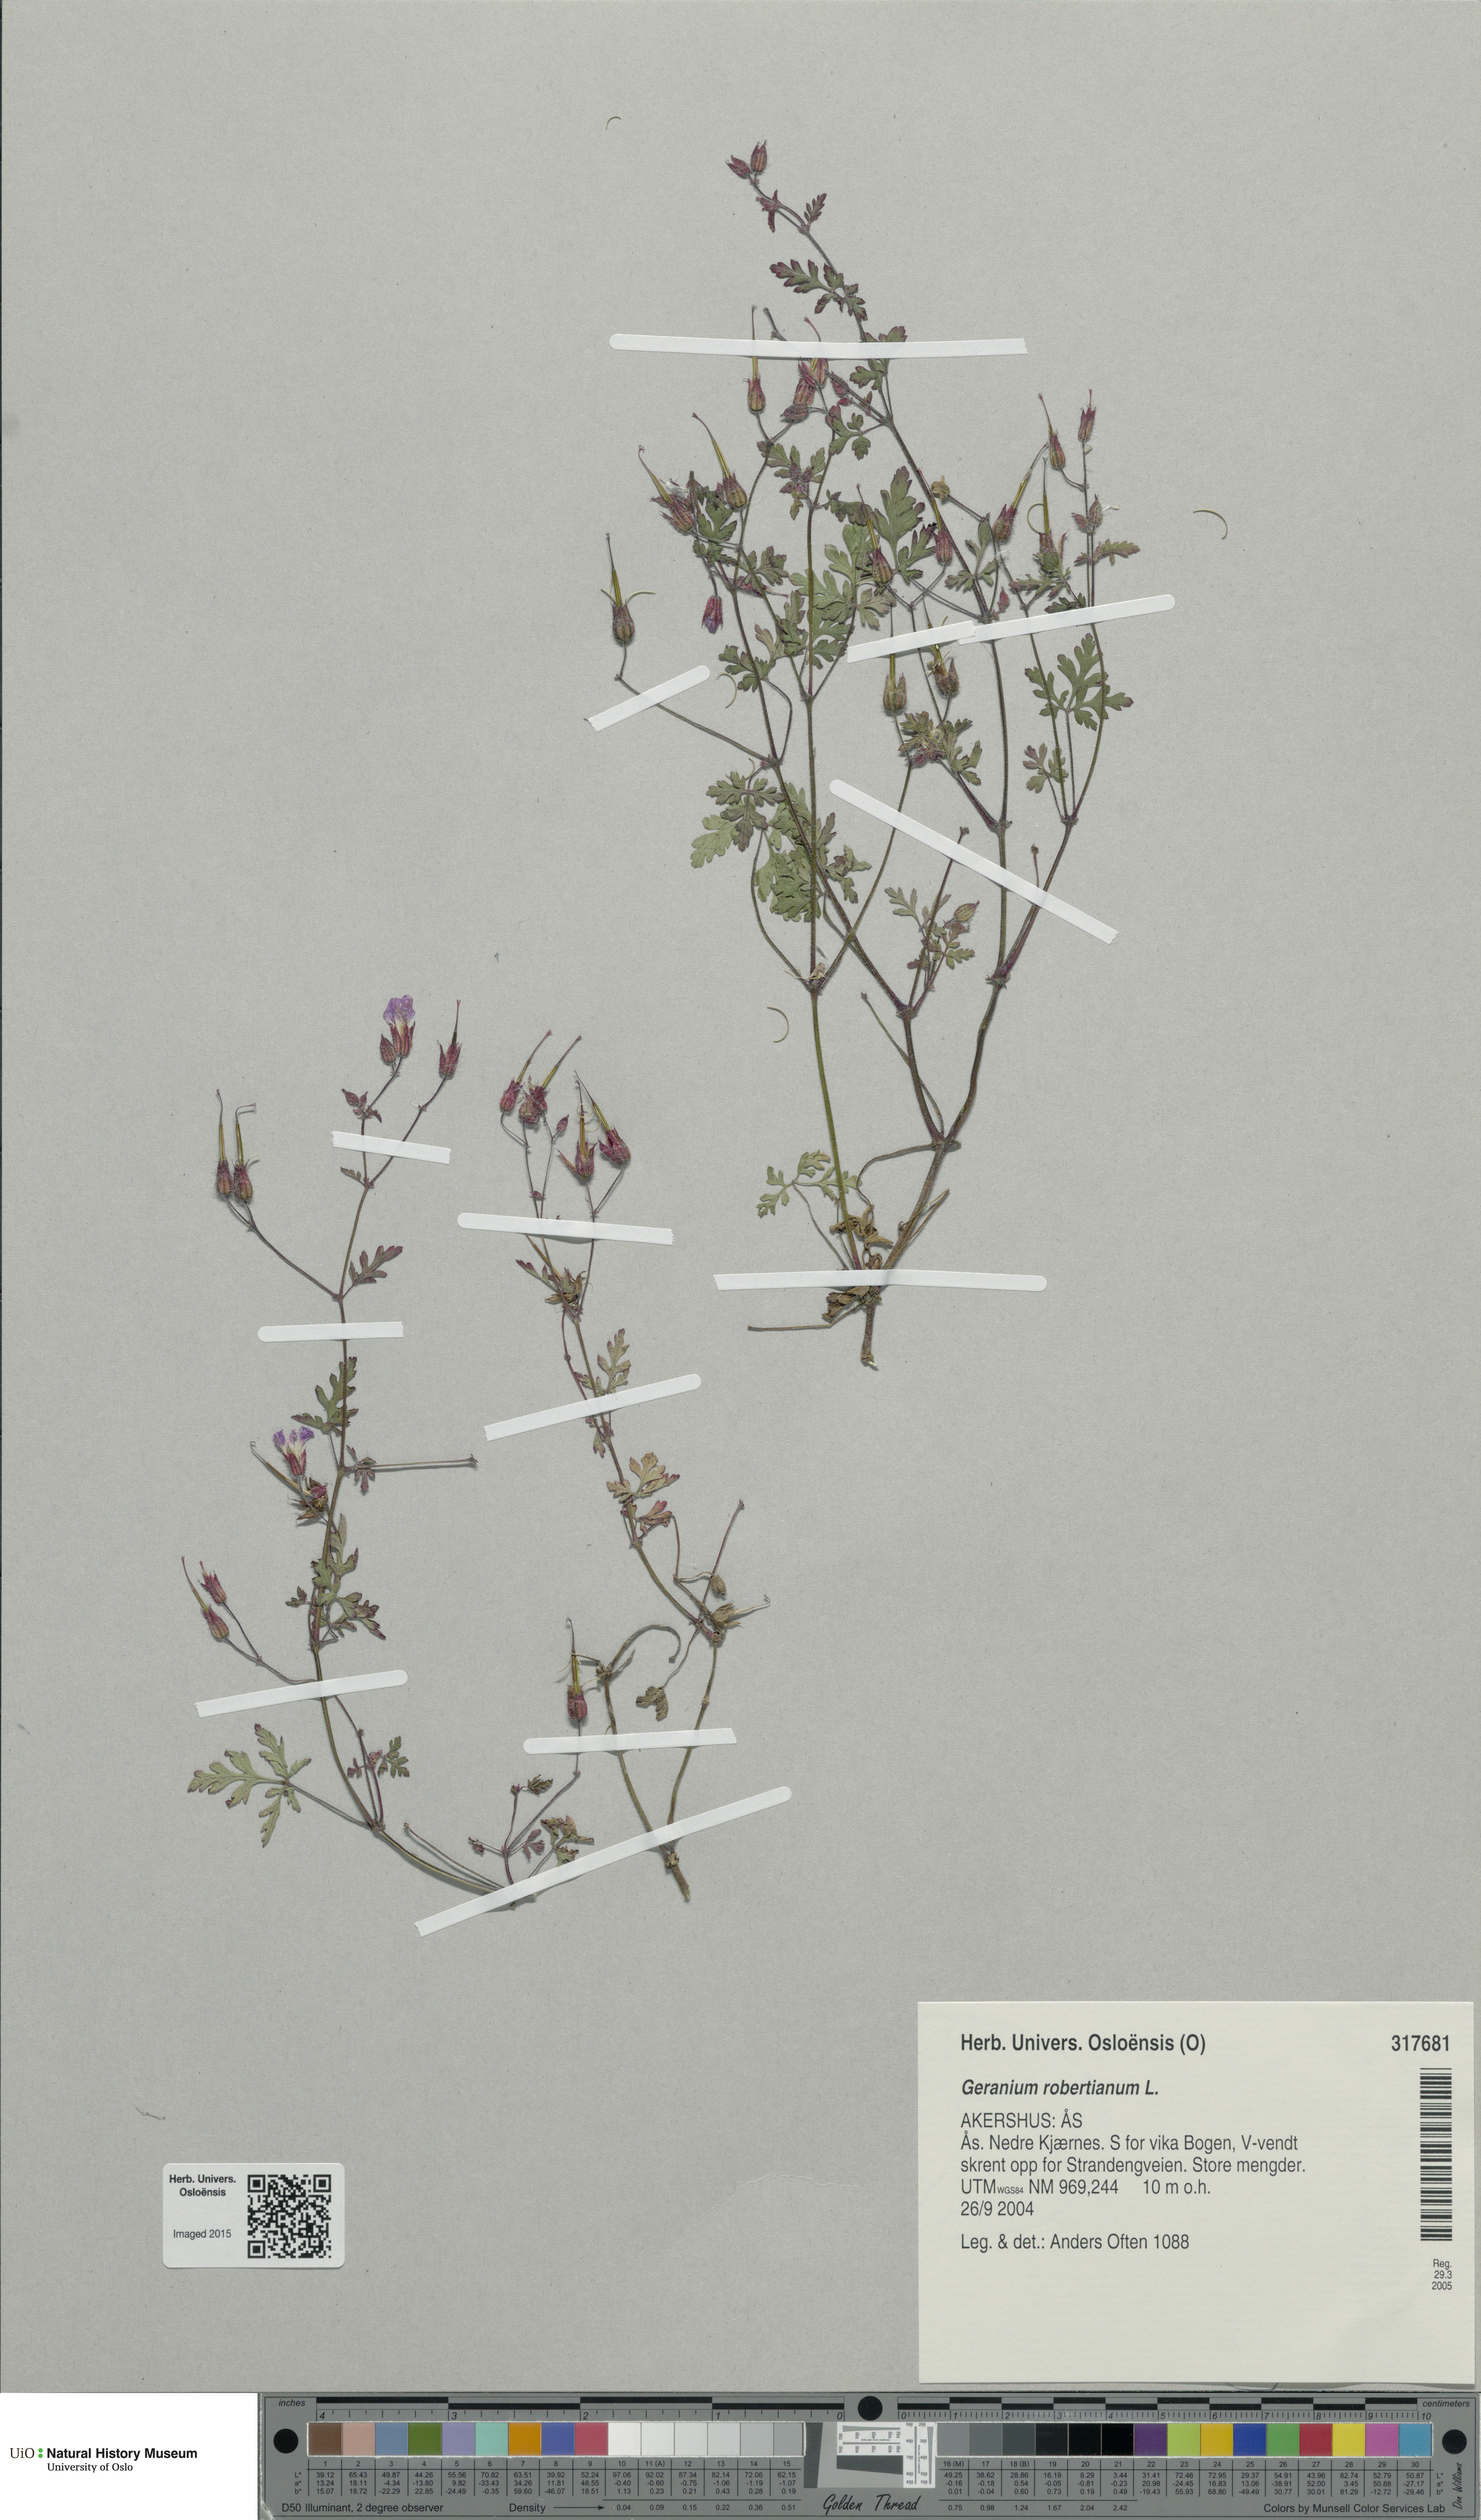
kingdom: Plantae
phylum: Tracheophyta
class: Magnoliopsida
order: Geraniales
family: Geraniaceae
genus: Geranium
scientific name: Geranium robertianum
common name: Herb-robert
